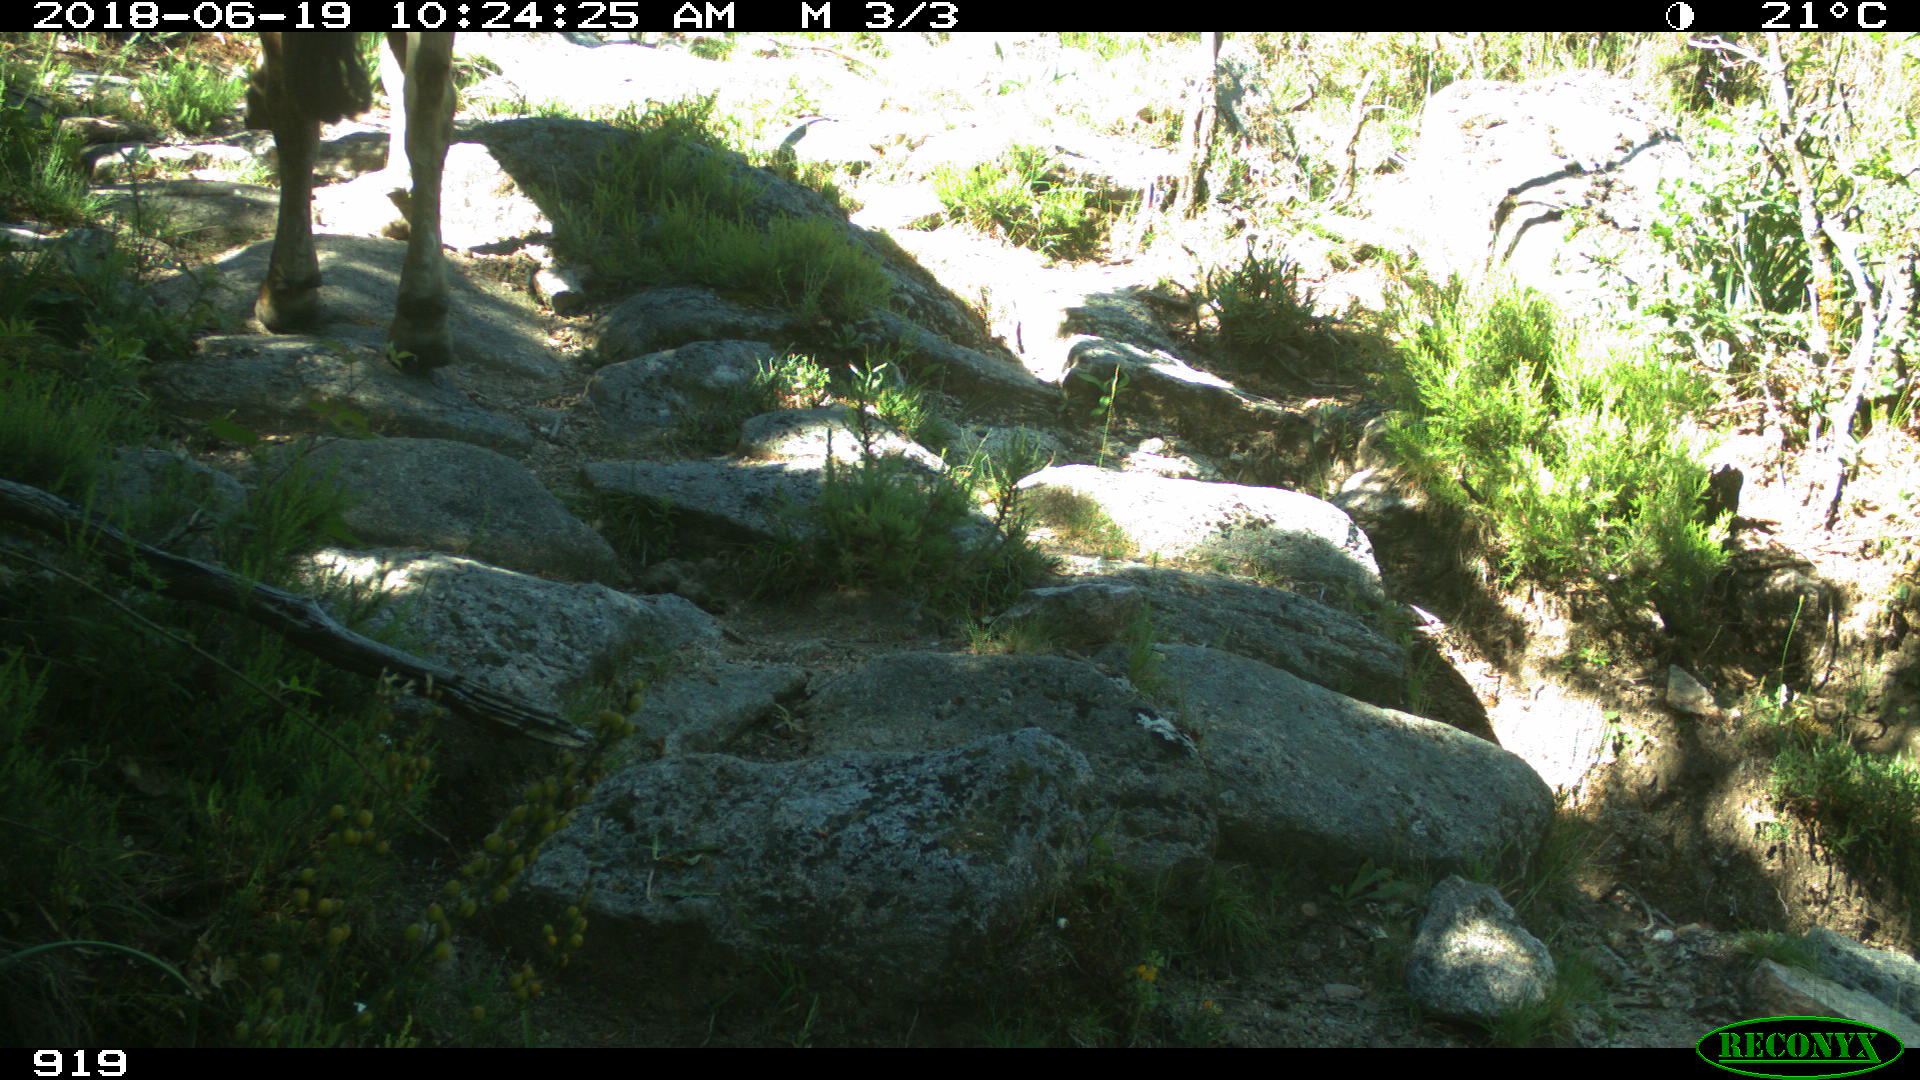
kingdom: Animalia
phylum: Chordata
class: Mammalia
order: Artiodactyla
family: Bovidae
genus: Bos
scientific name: Bos taurus
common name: Domesticated cattle
